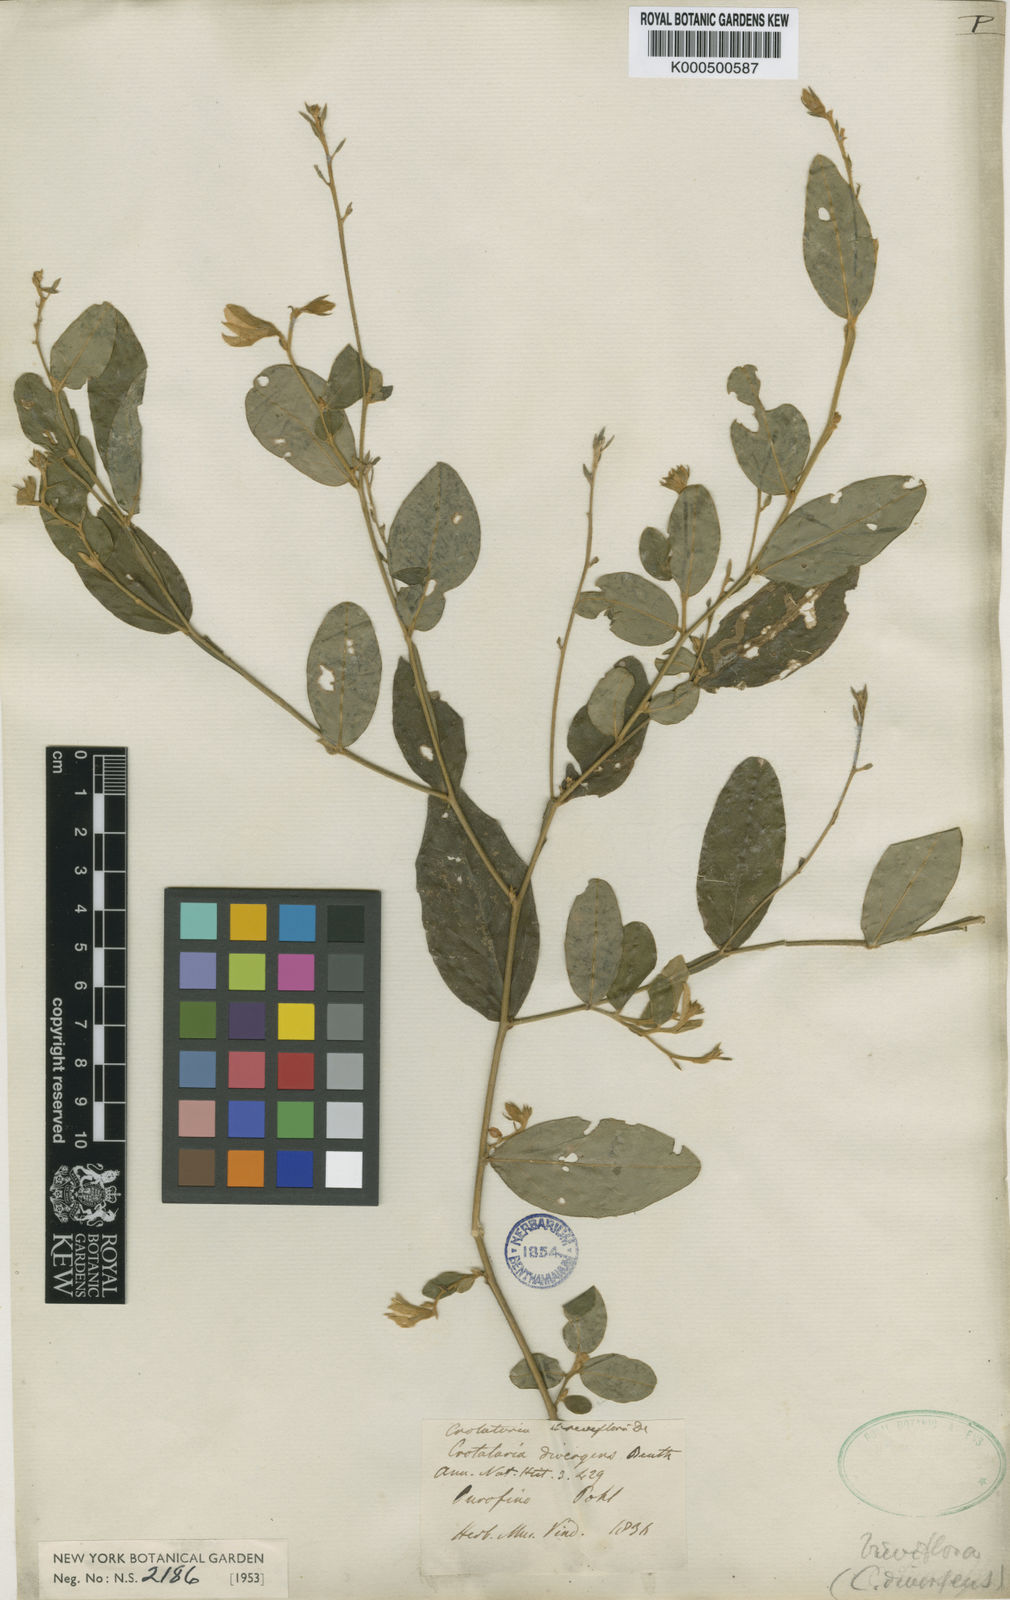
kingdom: Plantae
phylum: Tracheophyta
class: Magnoliopsida
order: Fabales
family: Fabaceae
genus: Crotalaria
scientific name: Crotalaria breviflora
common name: Short-flower crotalaria
